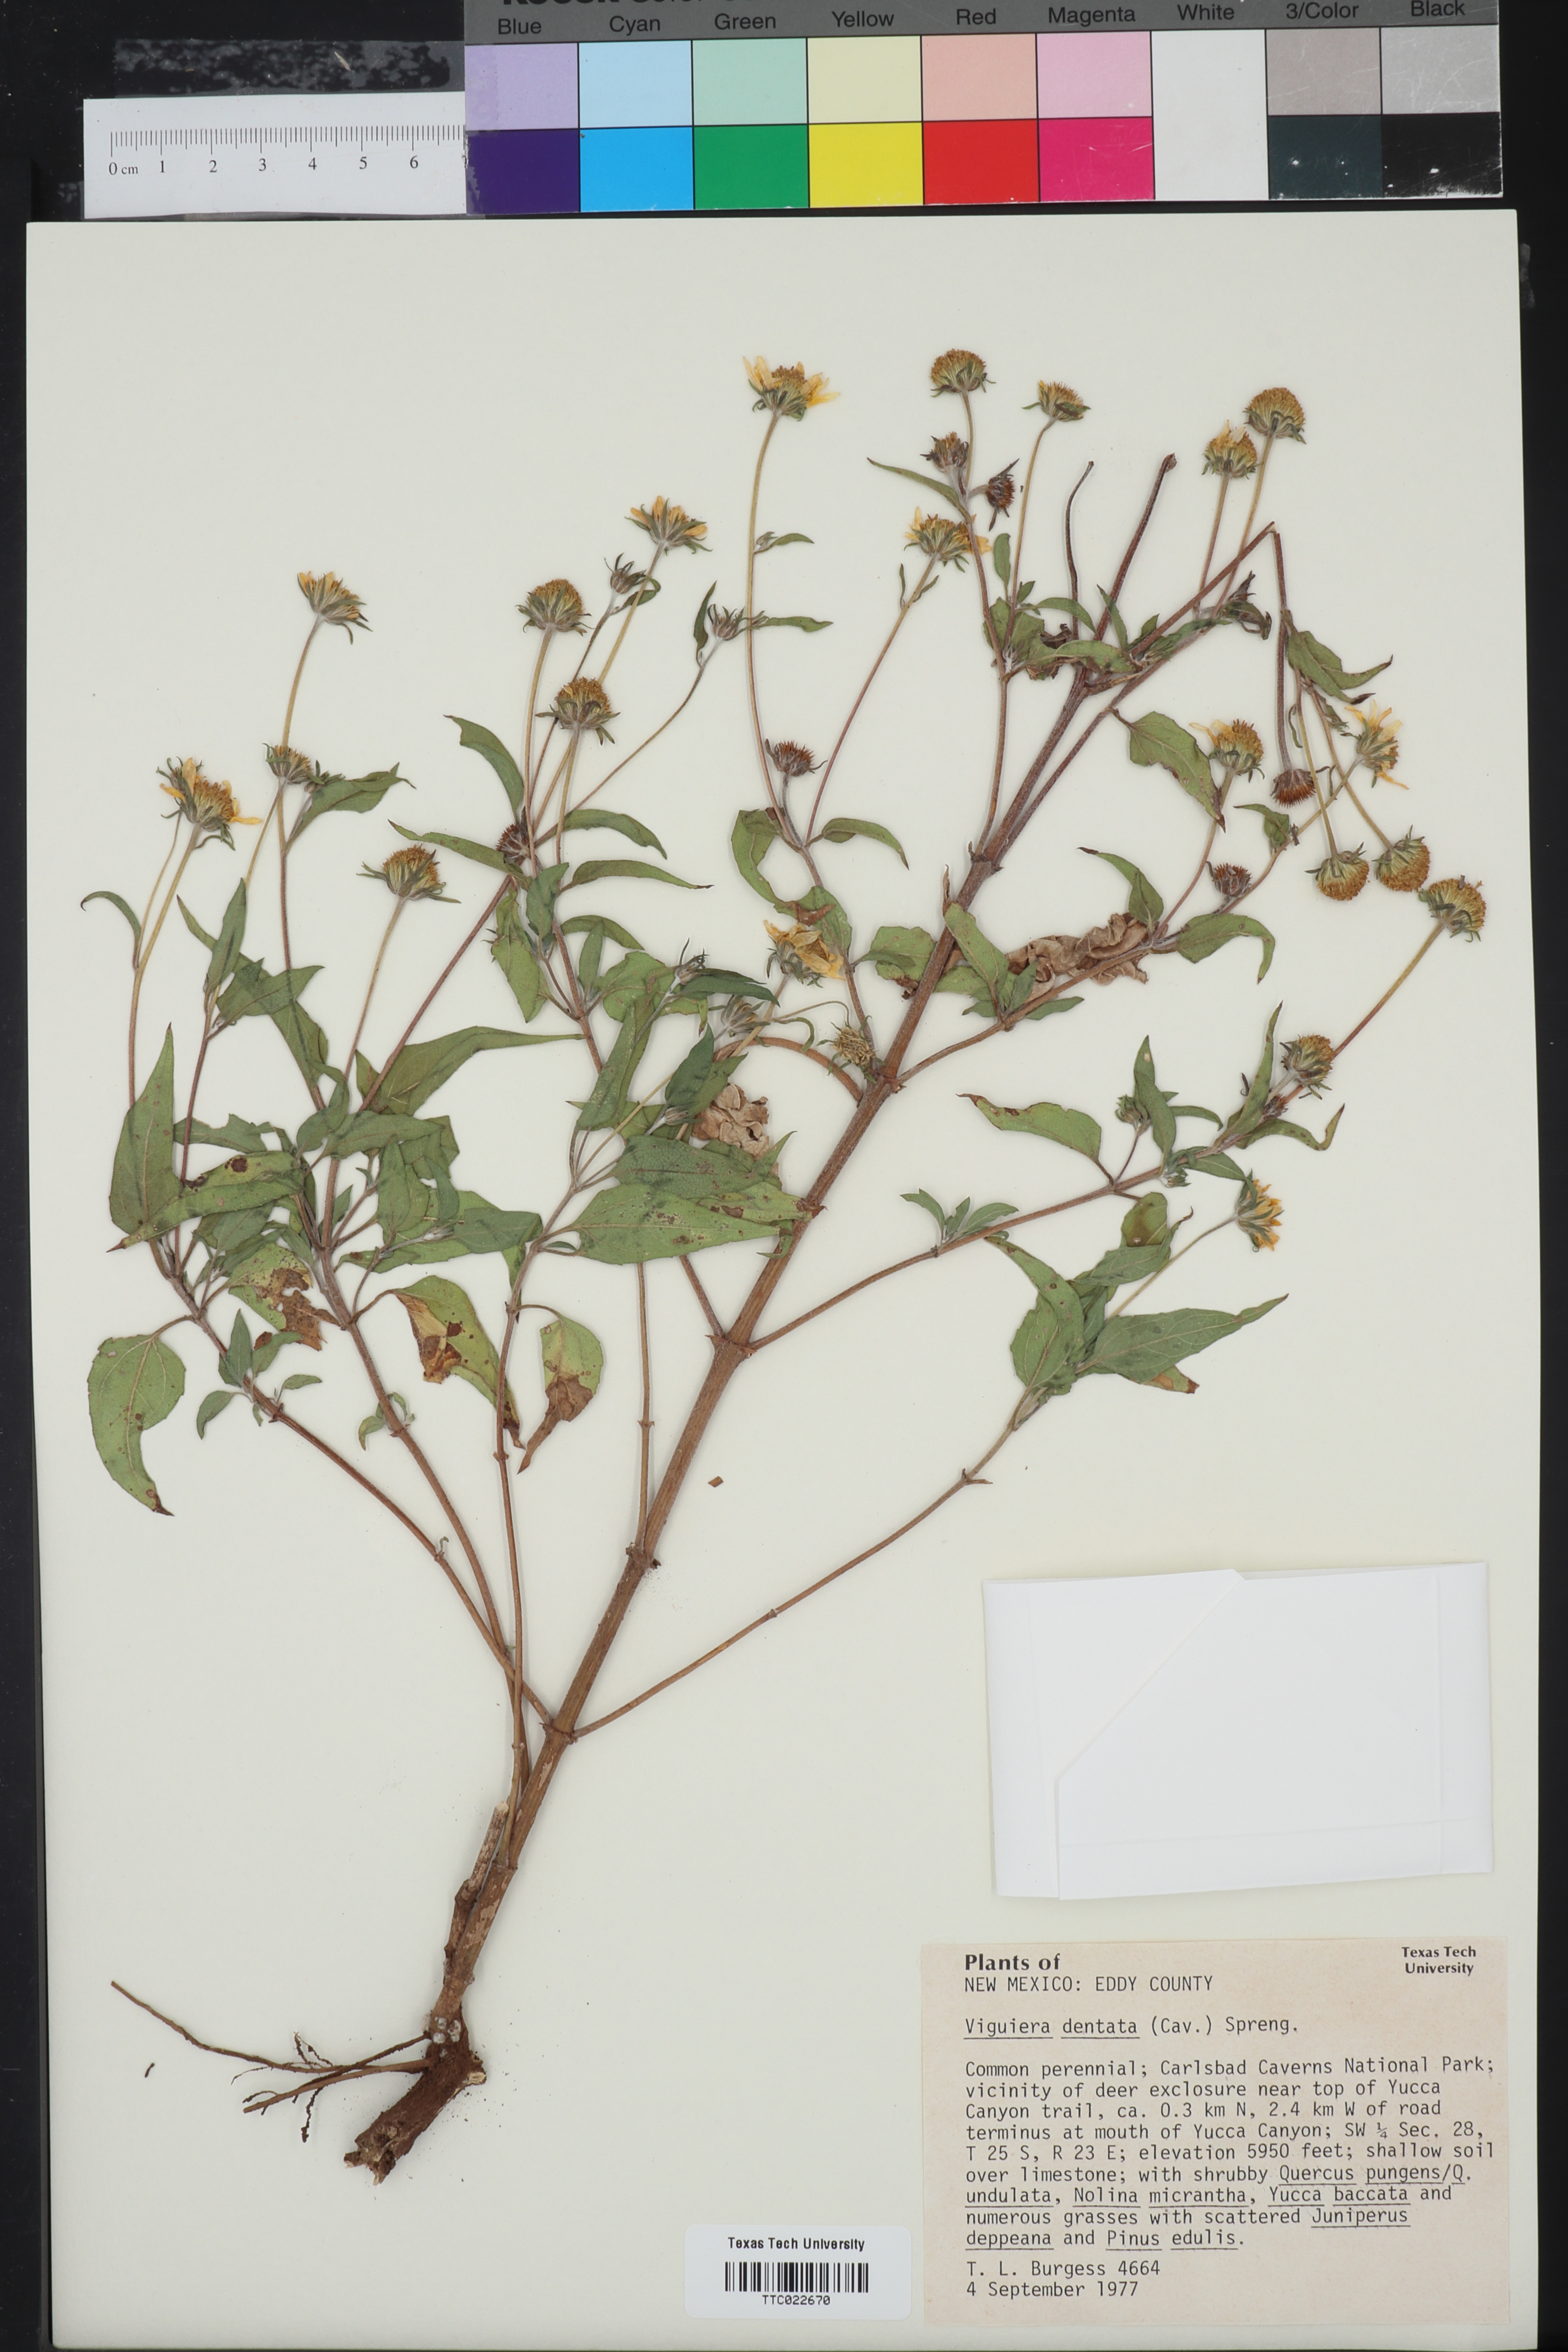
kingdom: Plantae
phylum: Tracheophyta
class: Magnoliopsida
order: Asterales
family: Asteraceae
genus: Viguiera
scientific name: Viguiera dentata
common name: Toothleaf
